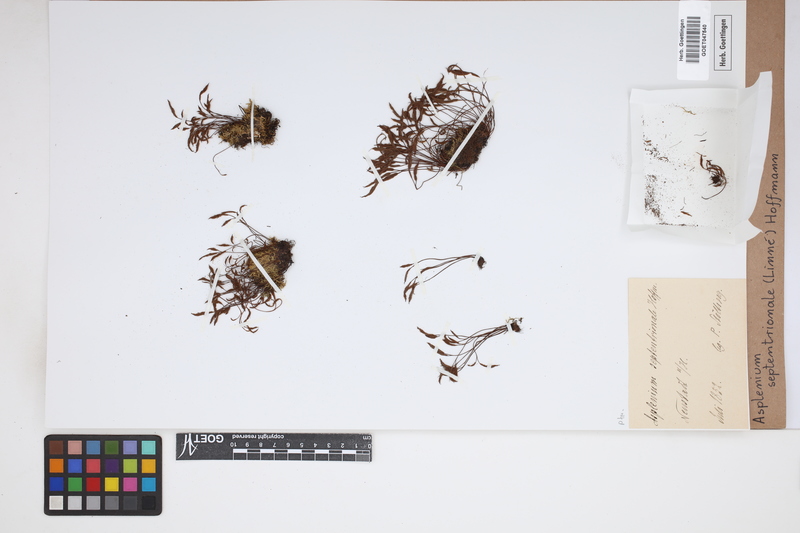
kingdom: Plantae
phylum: Tracheophyta
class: Polypodiopsida
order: Polypodiales
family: Aspleniaceae
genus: Asplenium
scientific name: Asplenium septentrionale
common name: Forked spleenwort
